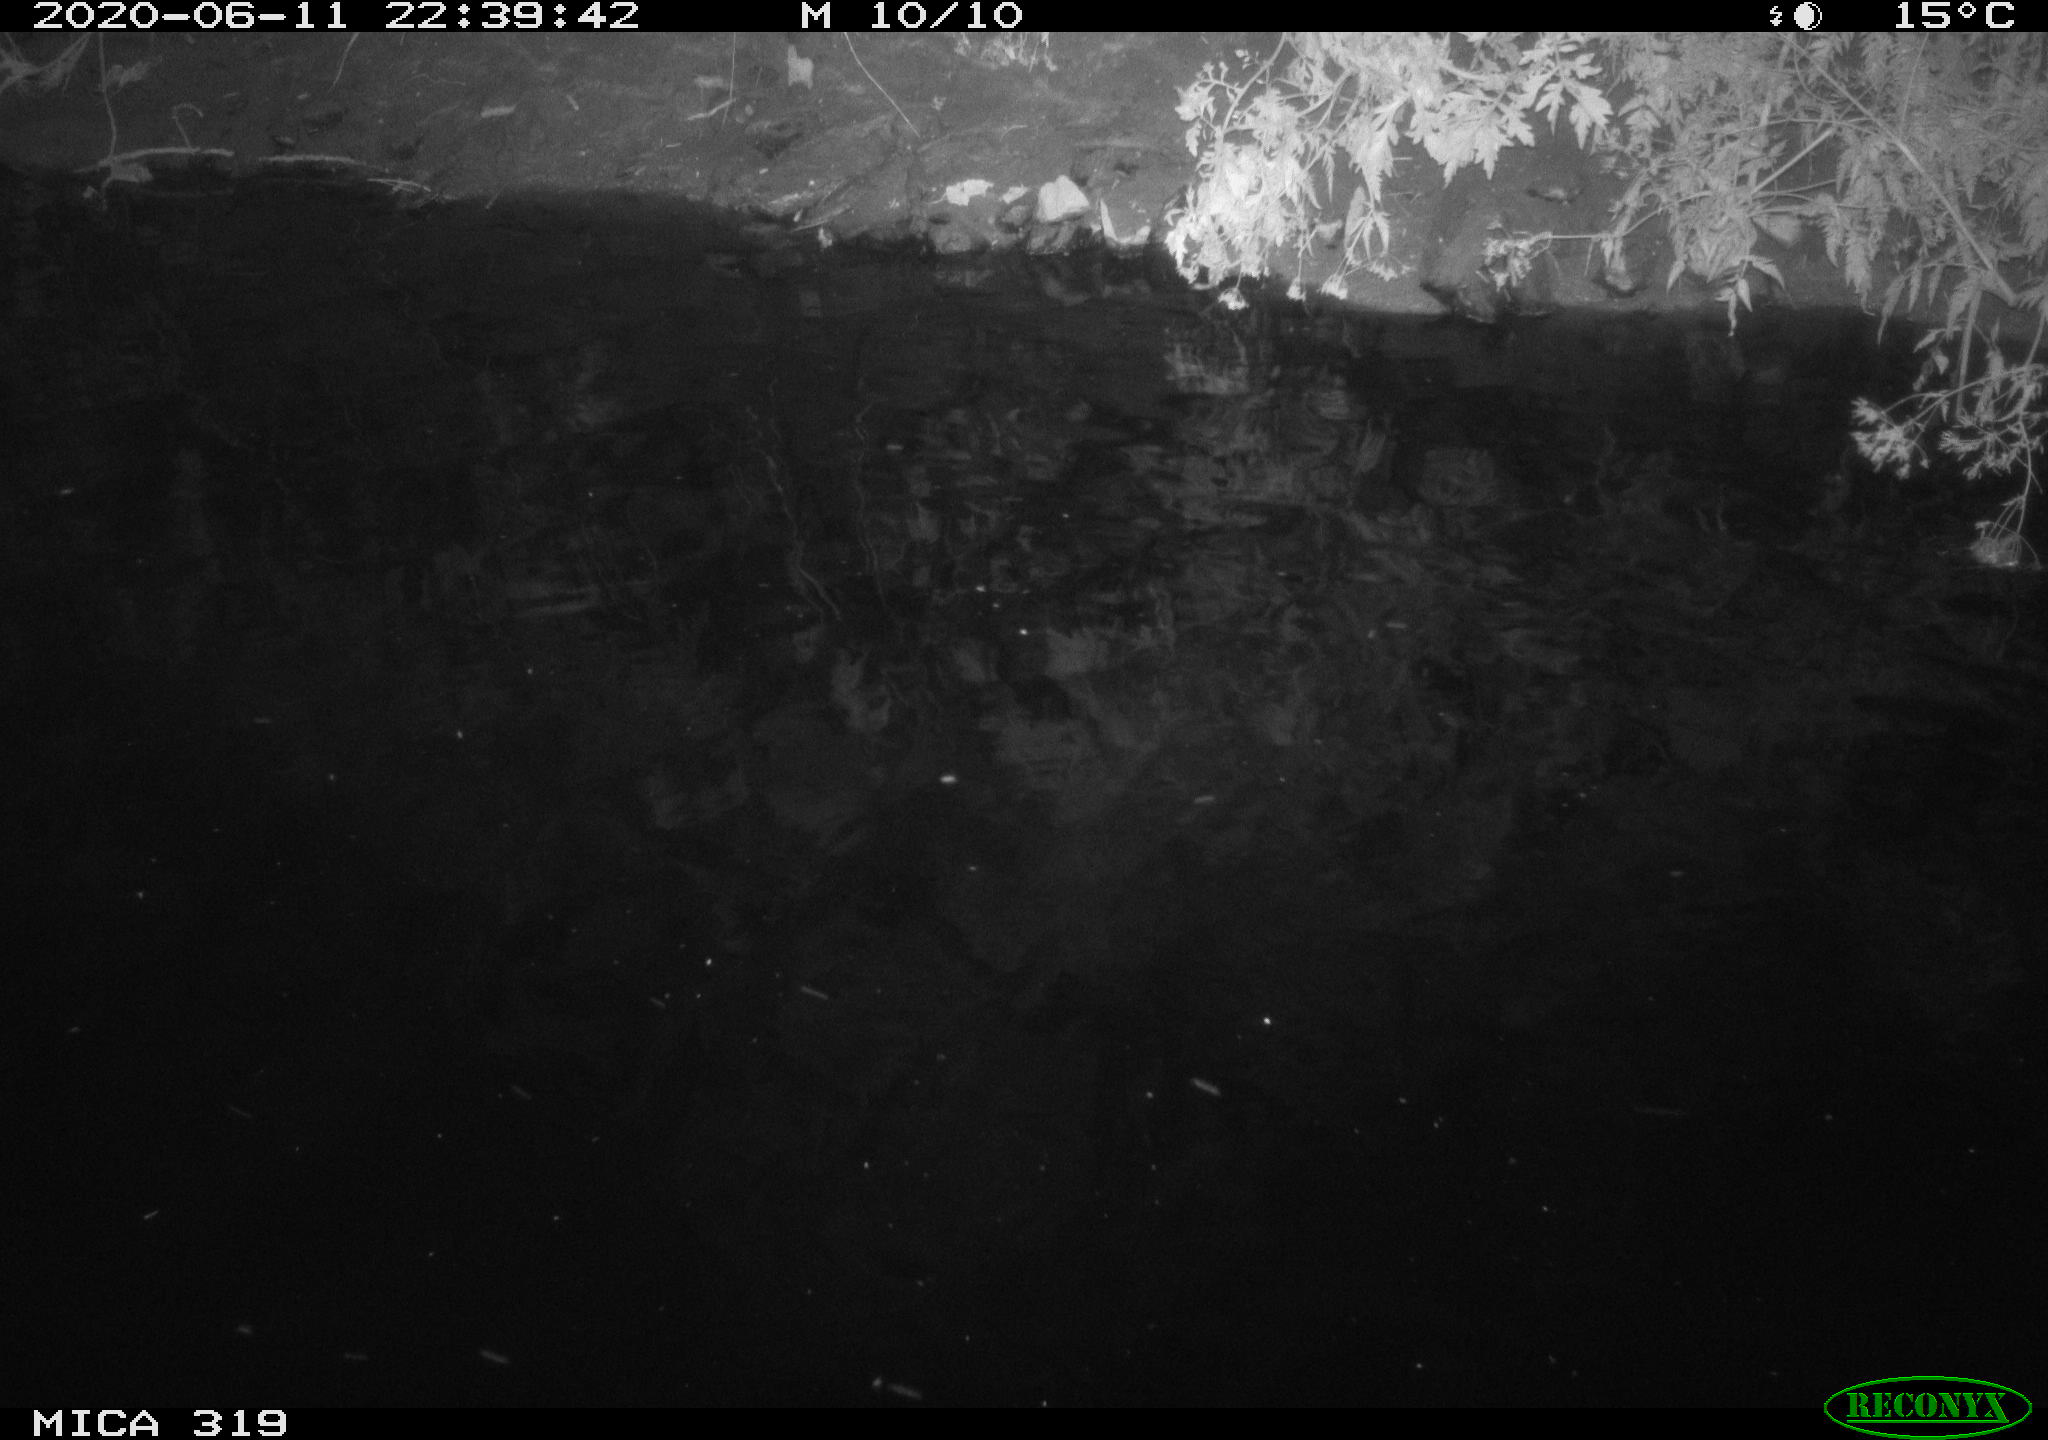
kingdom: Animalia
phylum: Chordata
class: Aves
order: Anseriformes
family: Anatidae
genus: Anas
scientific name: Anas platyrhynchos
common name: Mallard
